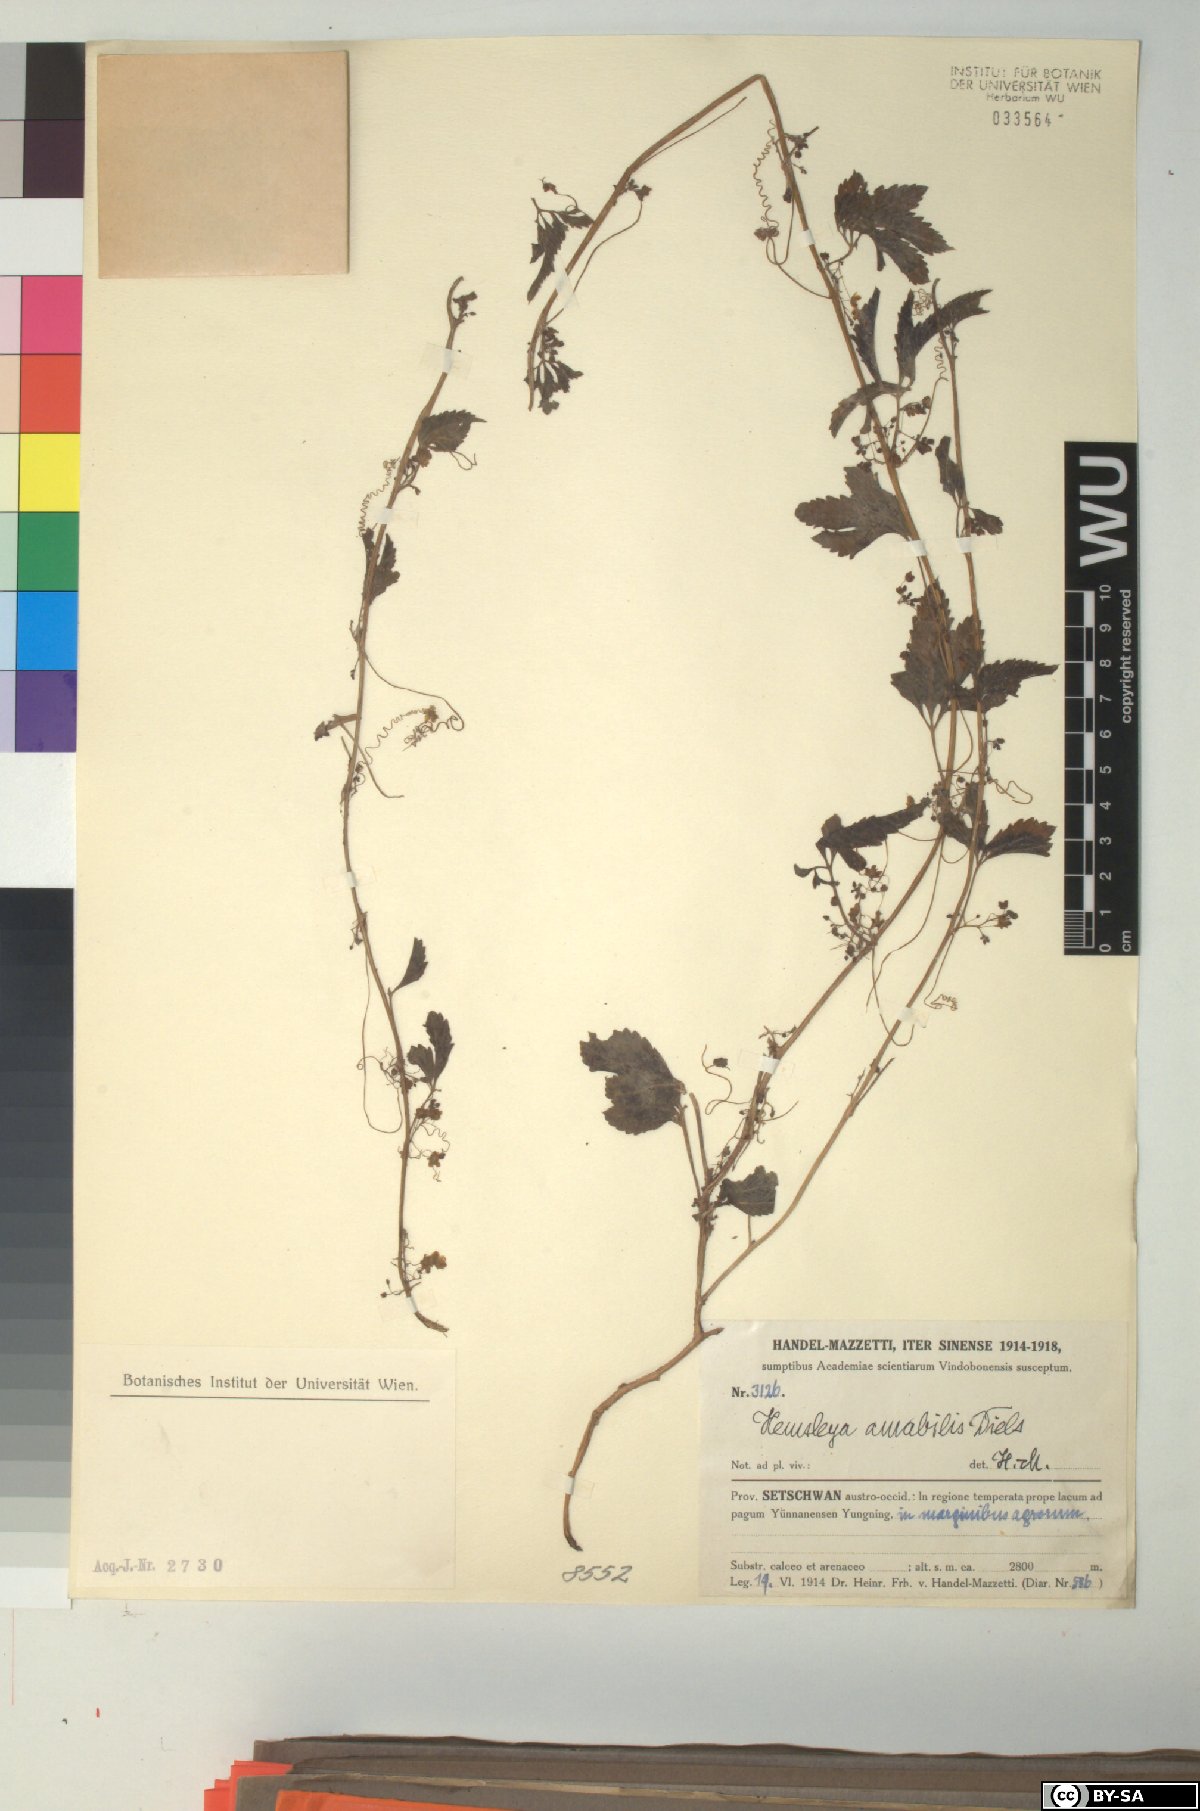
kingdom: Plantae
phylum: Tracheophyta
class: Magnoliopsida
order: Cucurbitales
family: Cucurbitaceae
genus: Hemsleya
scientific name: Hemsleya amabilis
